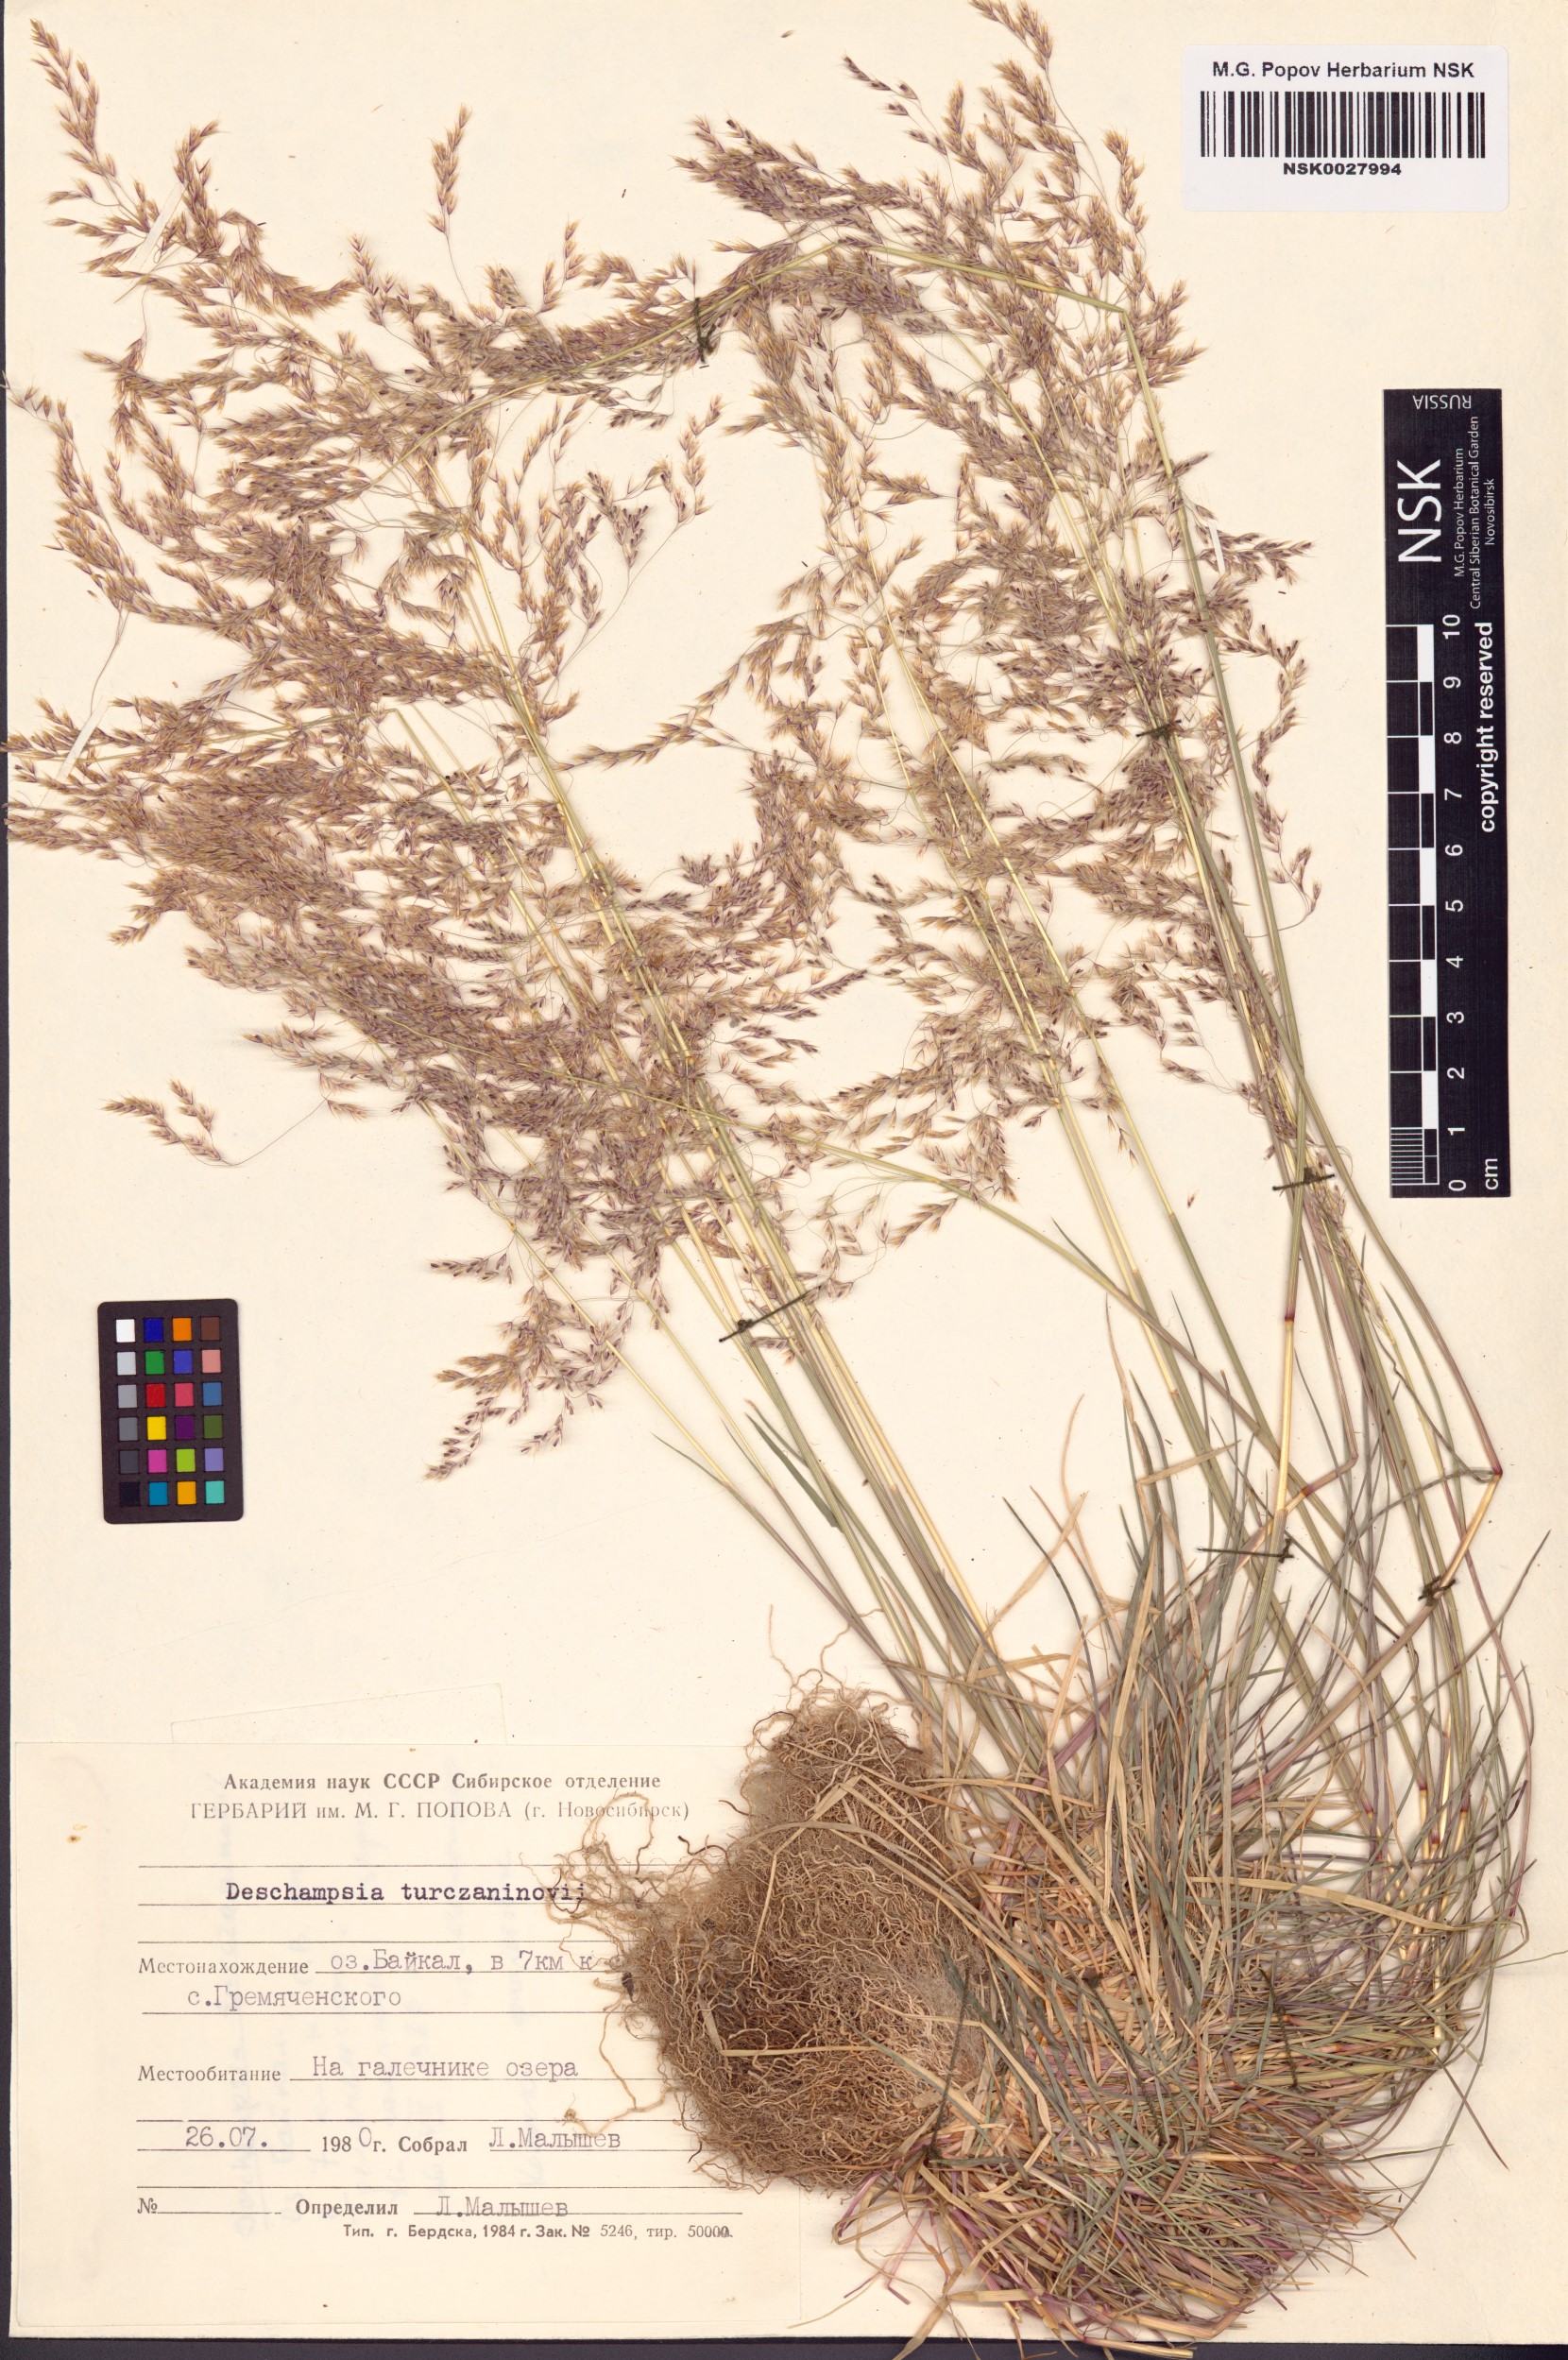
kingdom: Plantae
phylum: Tracheophyta
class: Liliopsida
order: Poales
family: Poaceae
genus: Deschampsia
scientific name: Deschampsia cespitosa
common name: Tufted hair-grass
